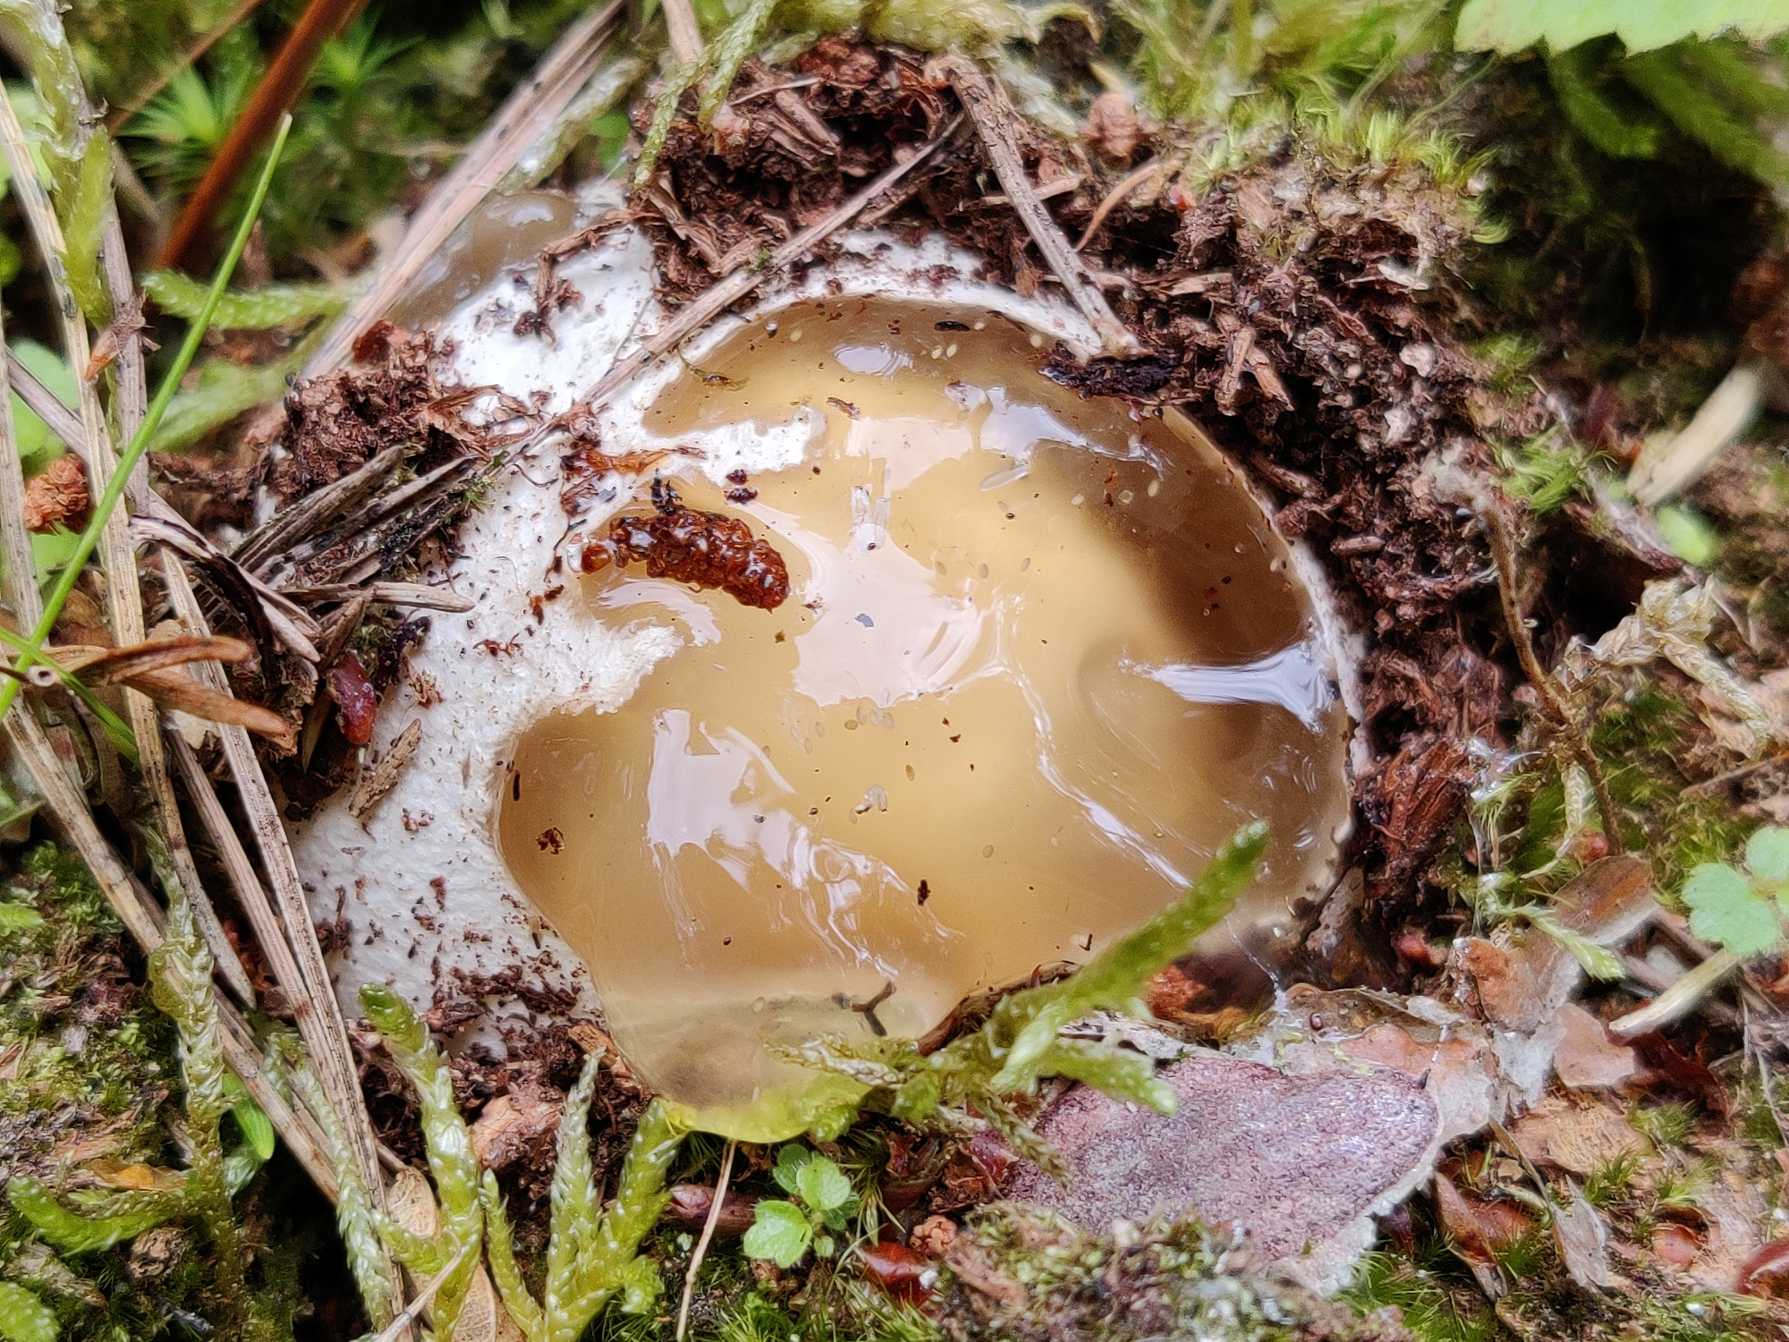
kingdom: Fungi
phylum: Basidiomycota
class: Agaricomycetes
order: Phallales
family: Phallaceae
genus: Phallus
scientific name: Phallus impudicus
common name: Almindelig stinksvamp
